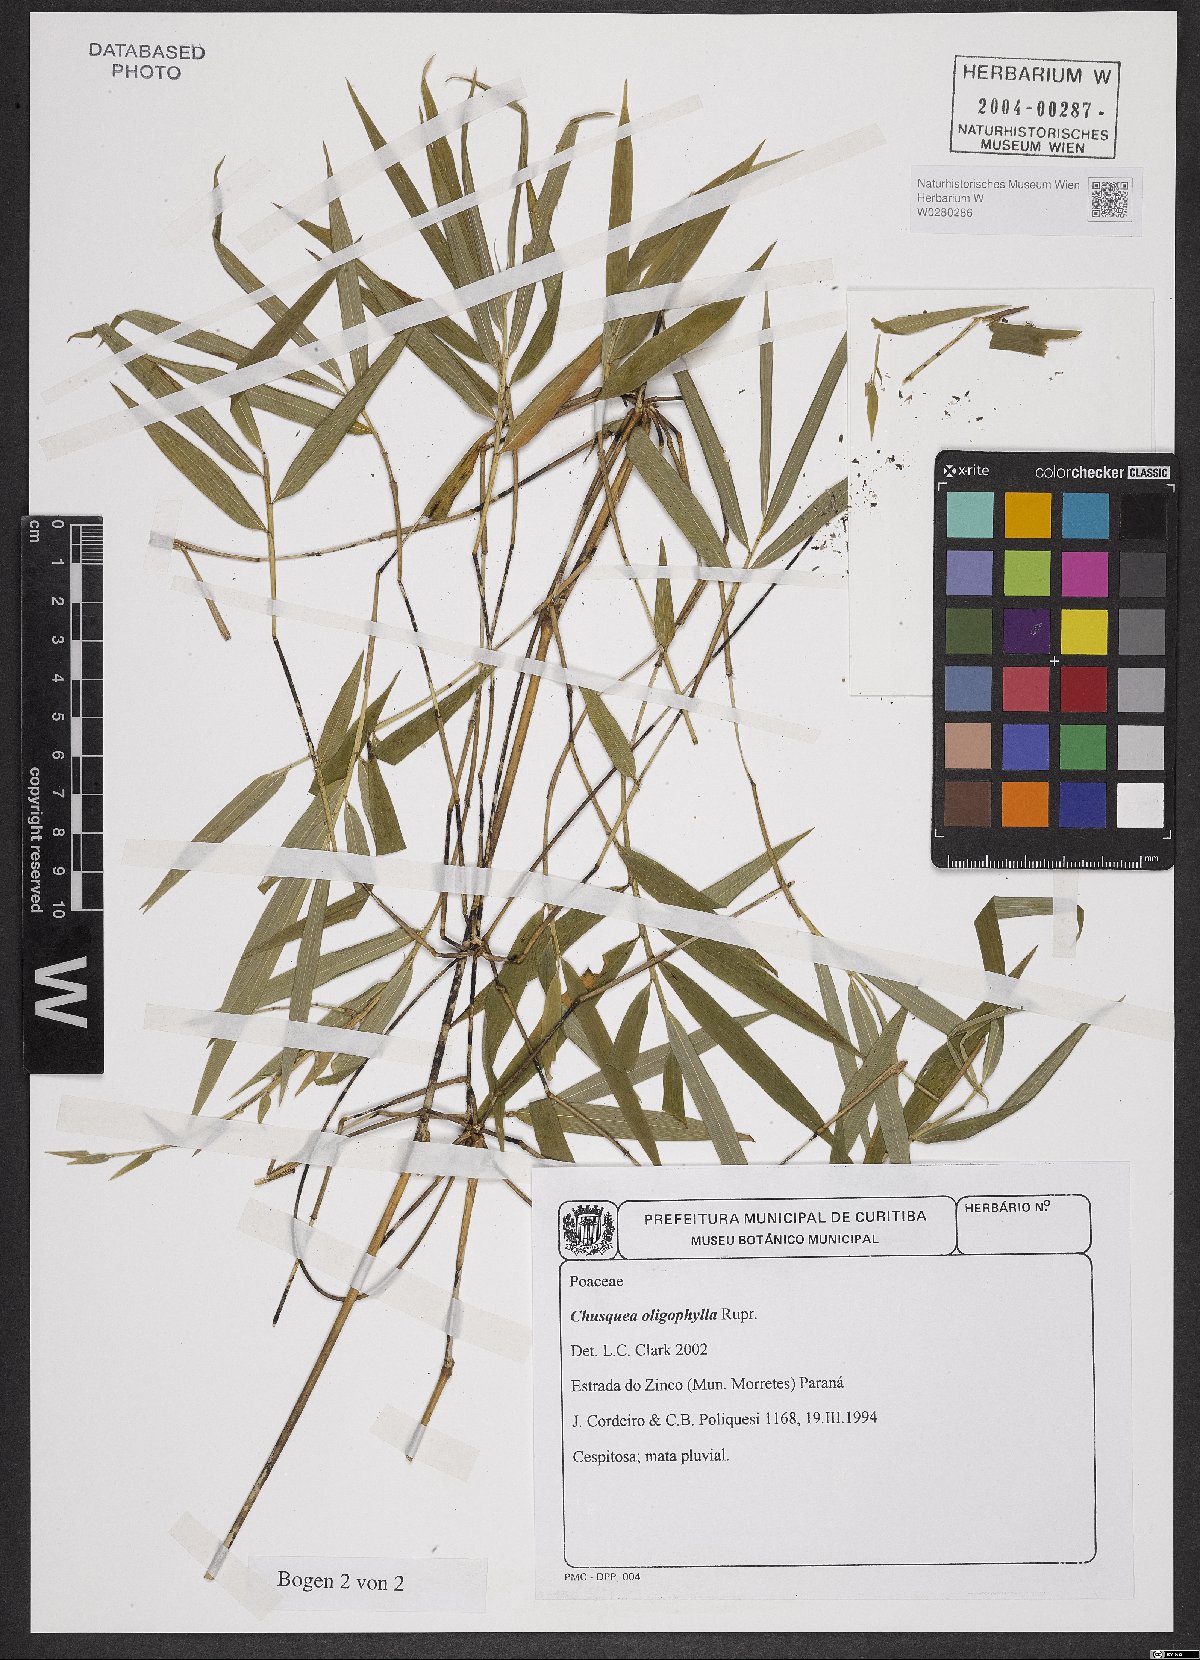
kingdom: Plantae
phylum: Tracheophyta
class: Liliopsida
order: Poales
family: Poaceae
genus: Chusquea
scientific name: Chusquea oligophylla
